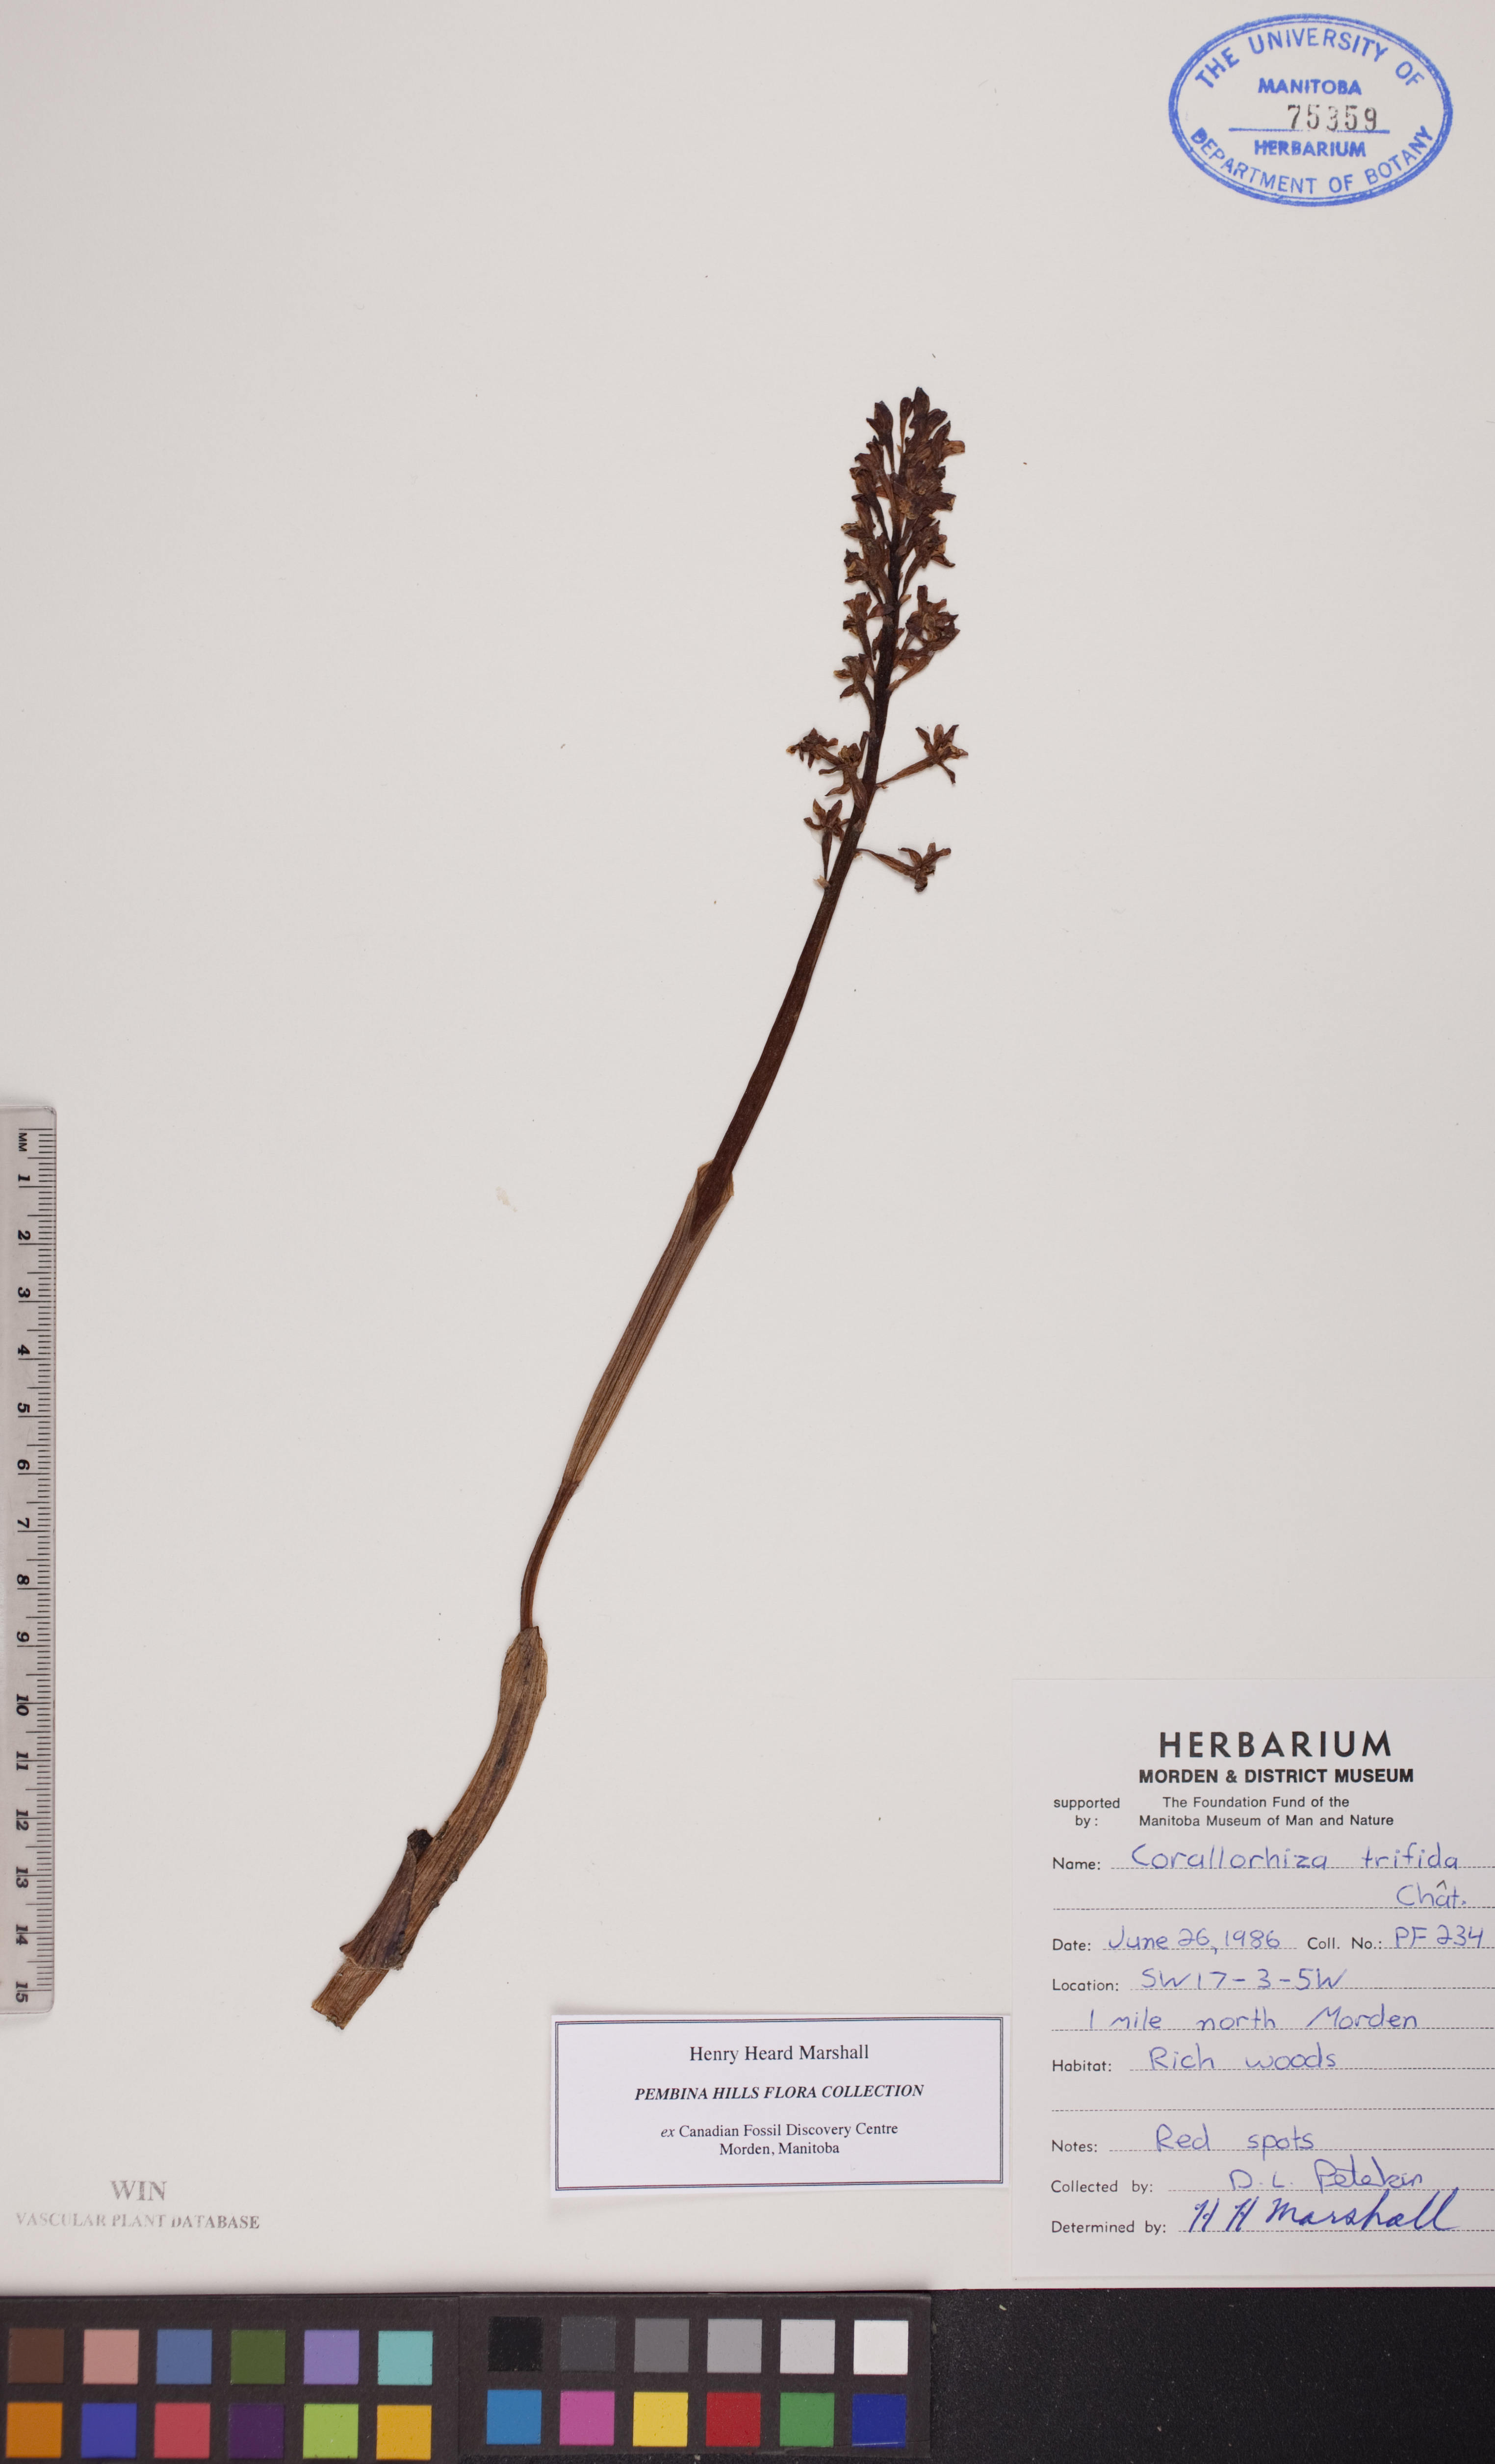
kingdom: Plantae
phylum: Tracheophyta
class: Liliopsida
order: Asparagales
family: Orchidaceae
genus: Corallorhiza
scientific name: Corallorhiza trifida
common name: Yellow coralroot
